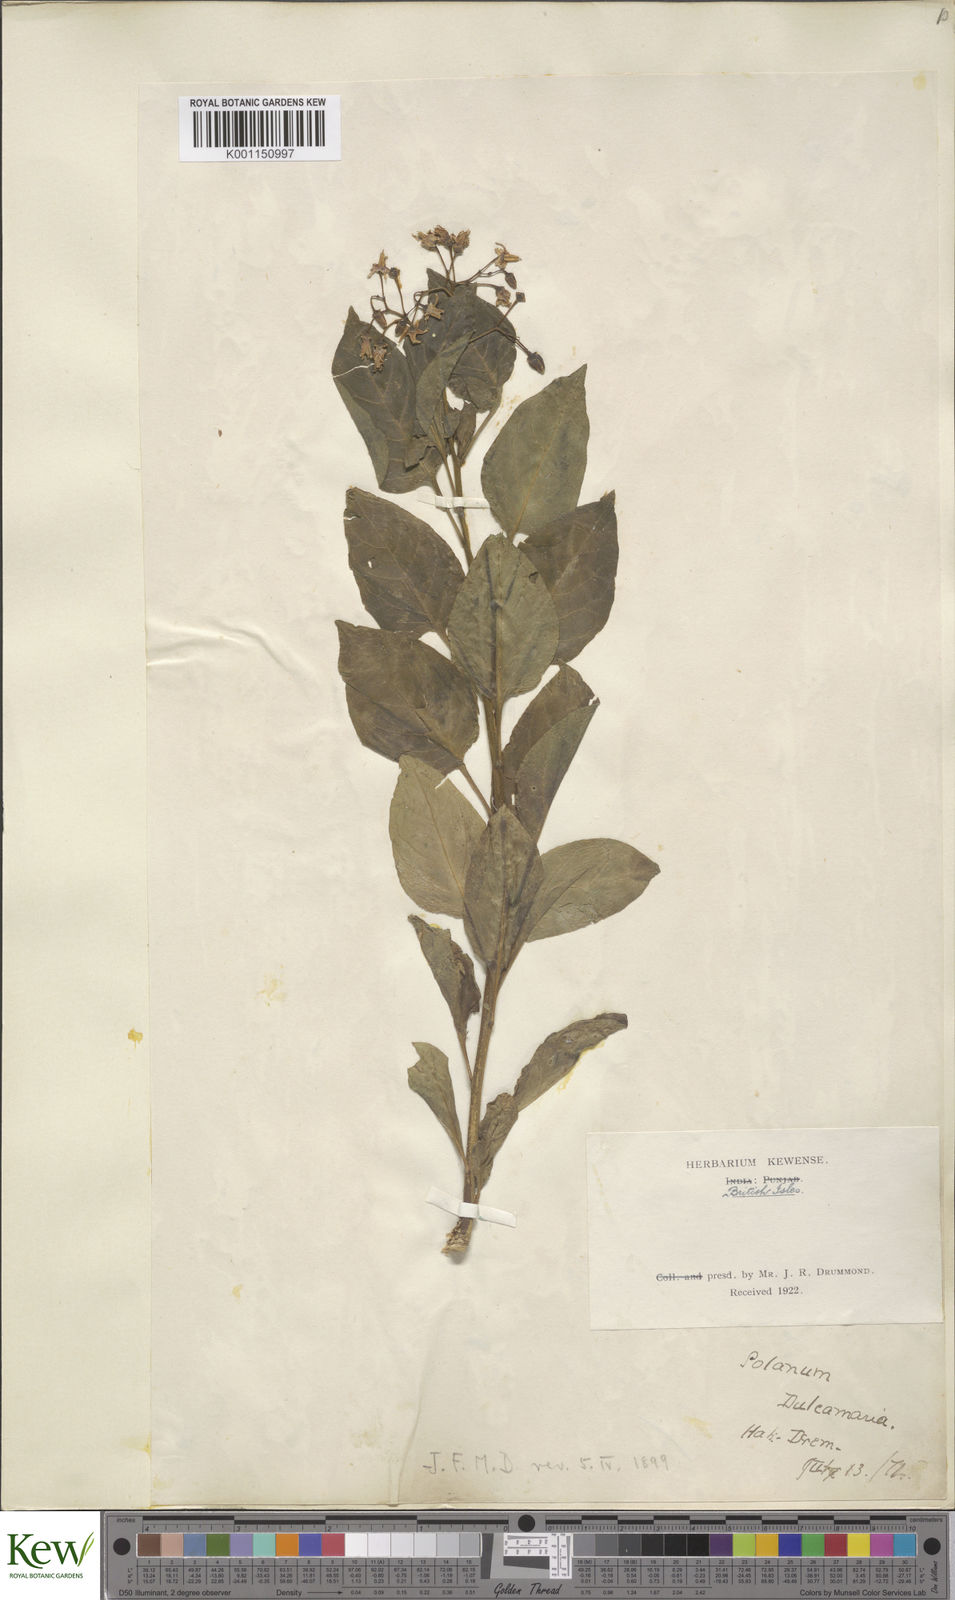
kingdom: Plantae
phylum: Tracheophyta
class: Magnoliopsida
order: Solanales
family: Solanaceae
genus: Solanum
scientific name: Solanum dulcamara
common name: Climbing nightshade
